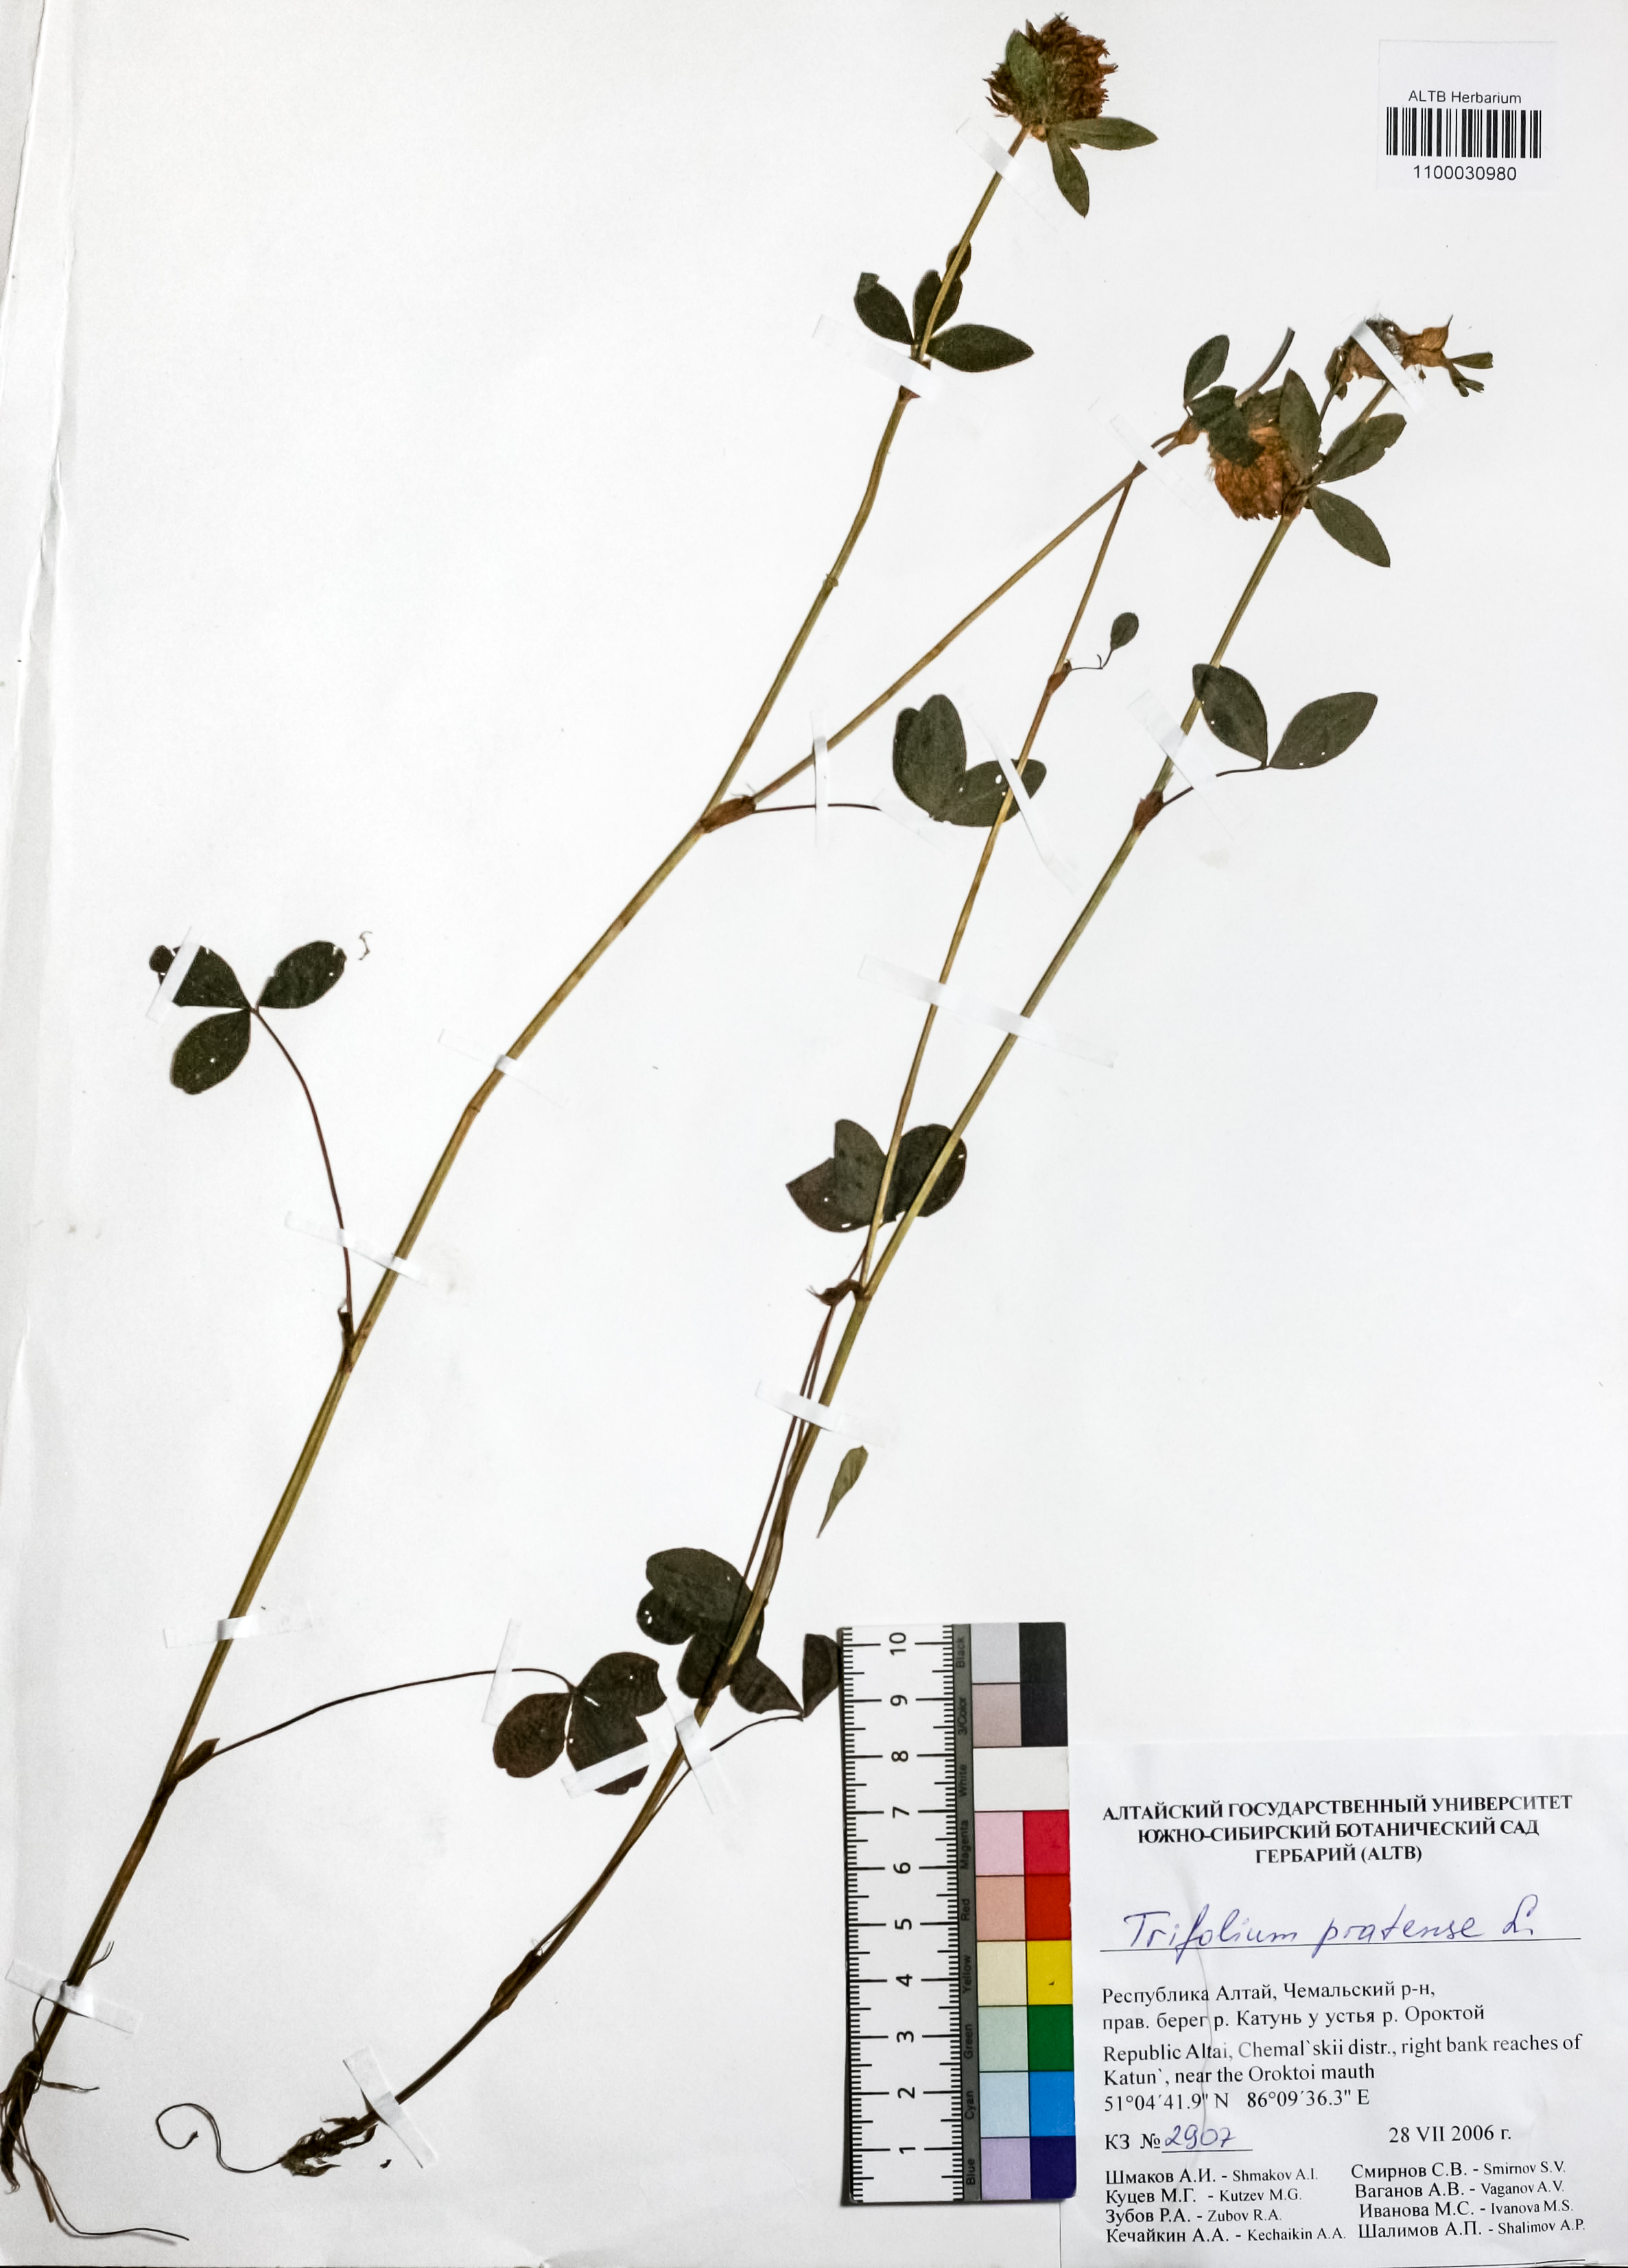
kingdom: Plantae
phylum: Tracheophyta
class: Magnoliopsida
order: Fabales
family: Fabaceae
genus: Trifolium
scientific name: Trifolium pratense
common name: Red clover
